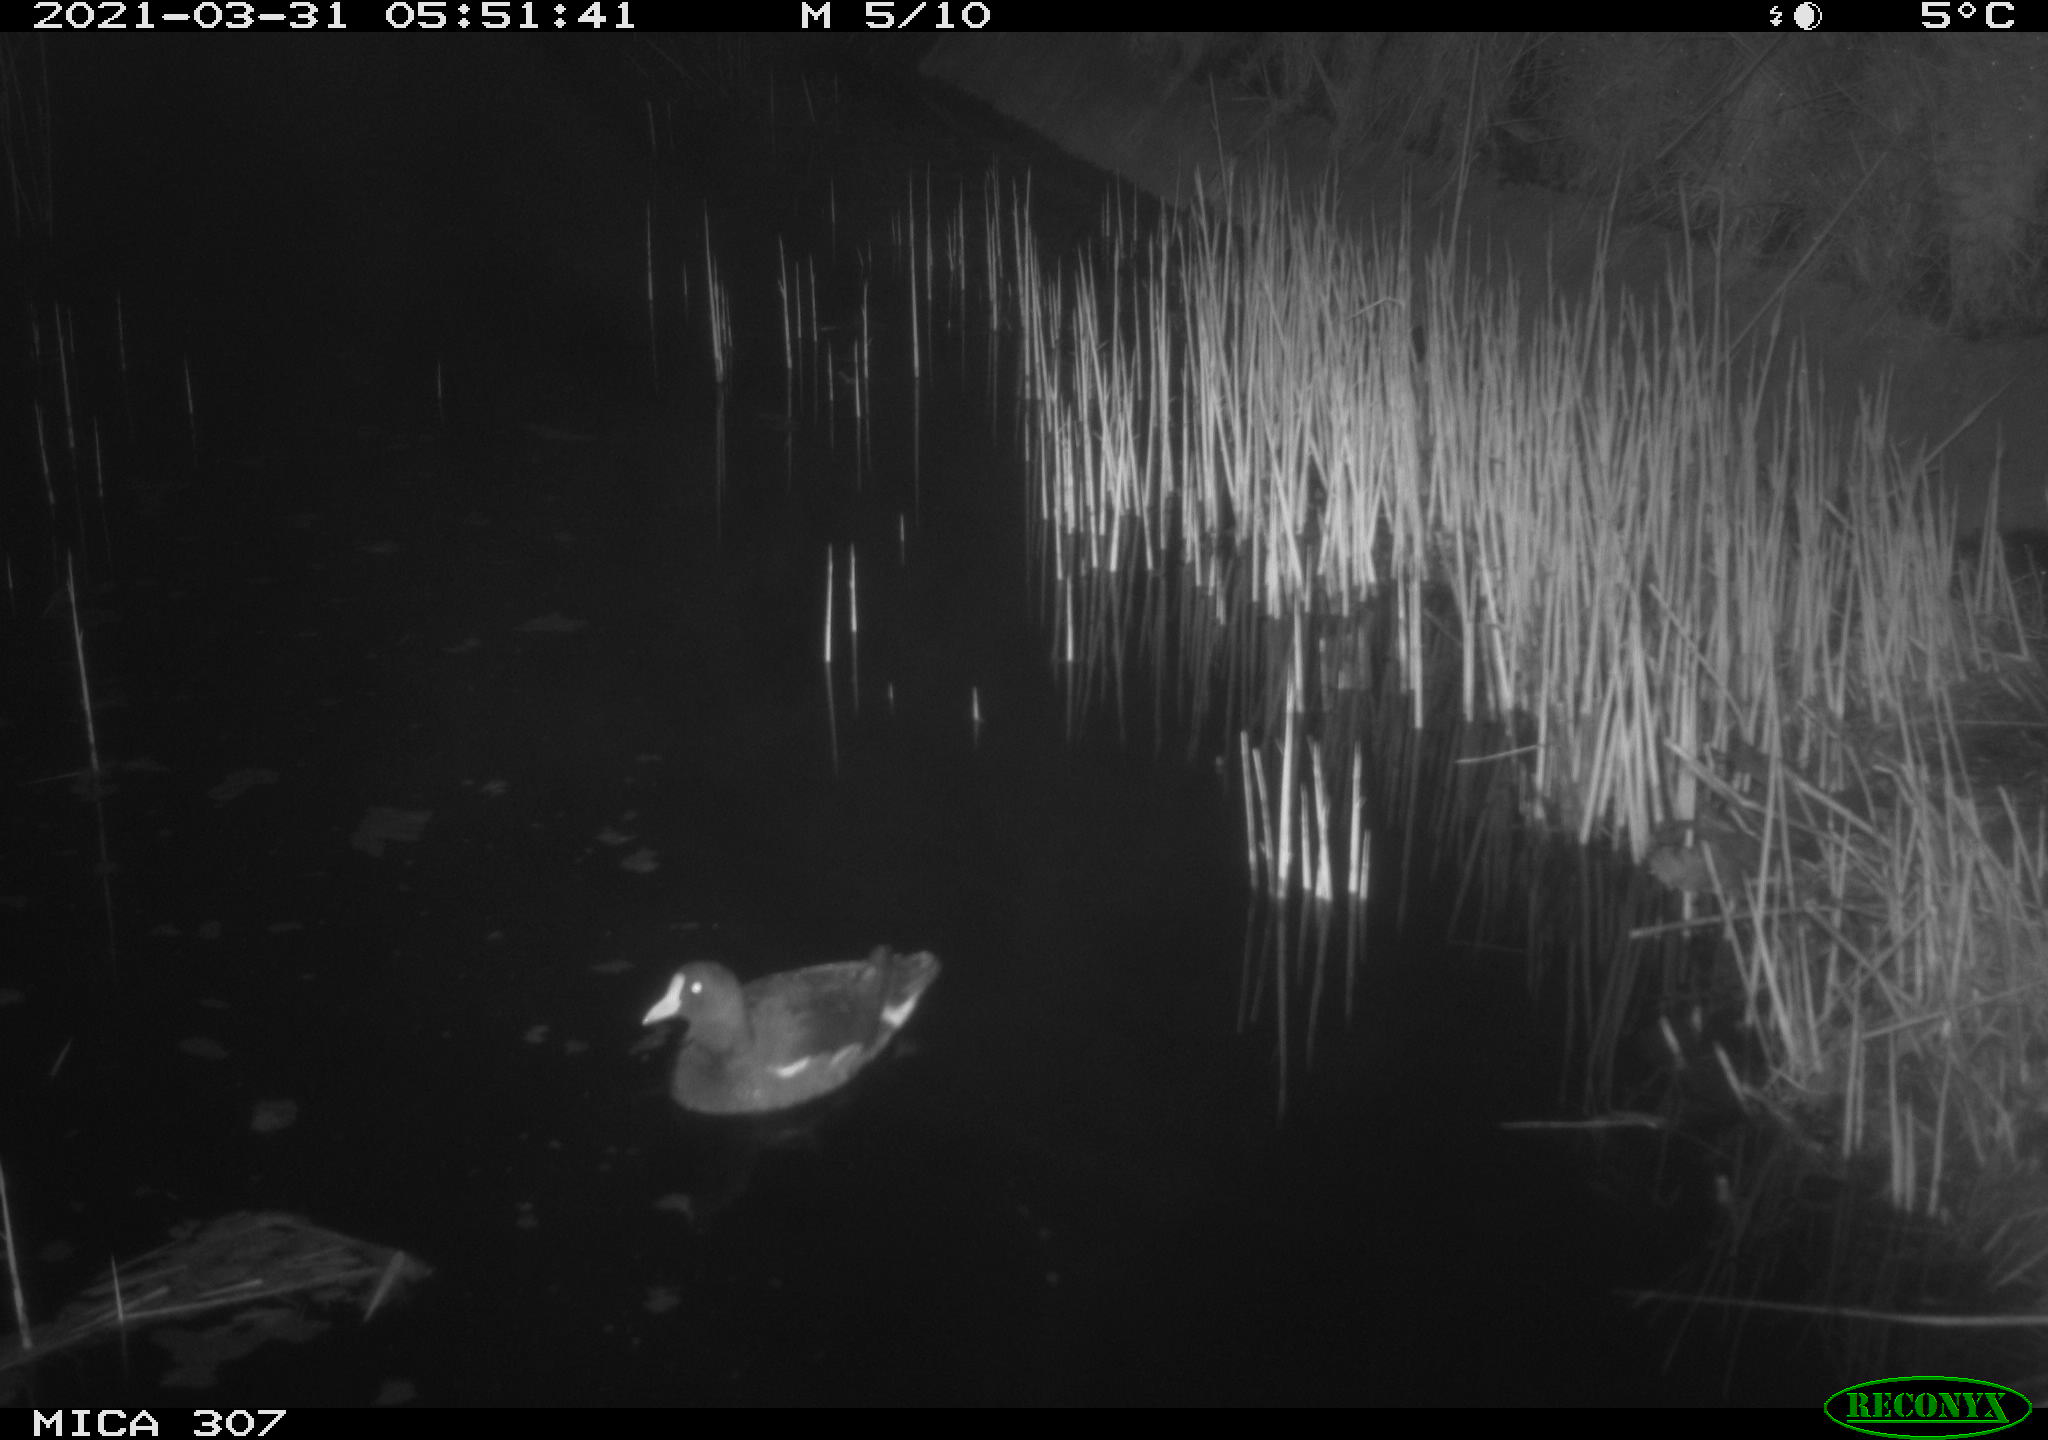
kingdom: Animalia
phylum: Chordata
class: Aves
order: Gruiformes
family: Rallidae
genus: Gallinula
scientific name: Gallinula chloropus
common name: Common moorhen
